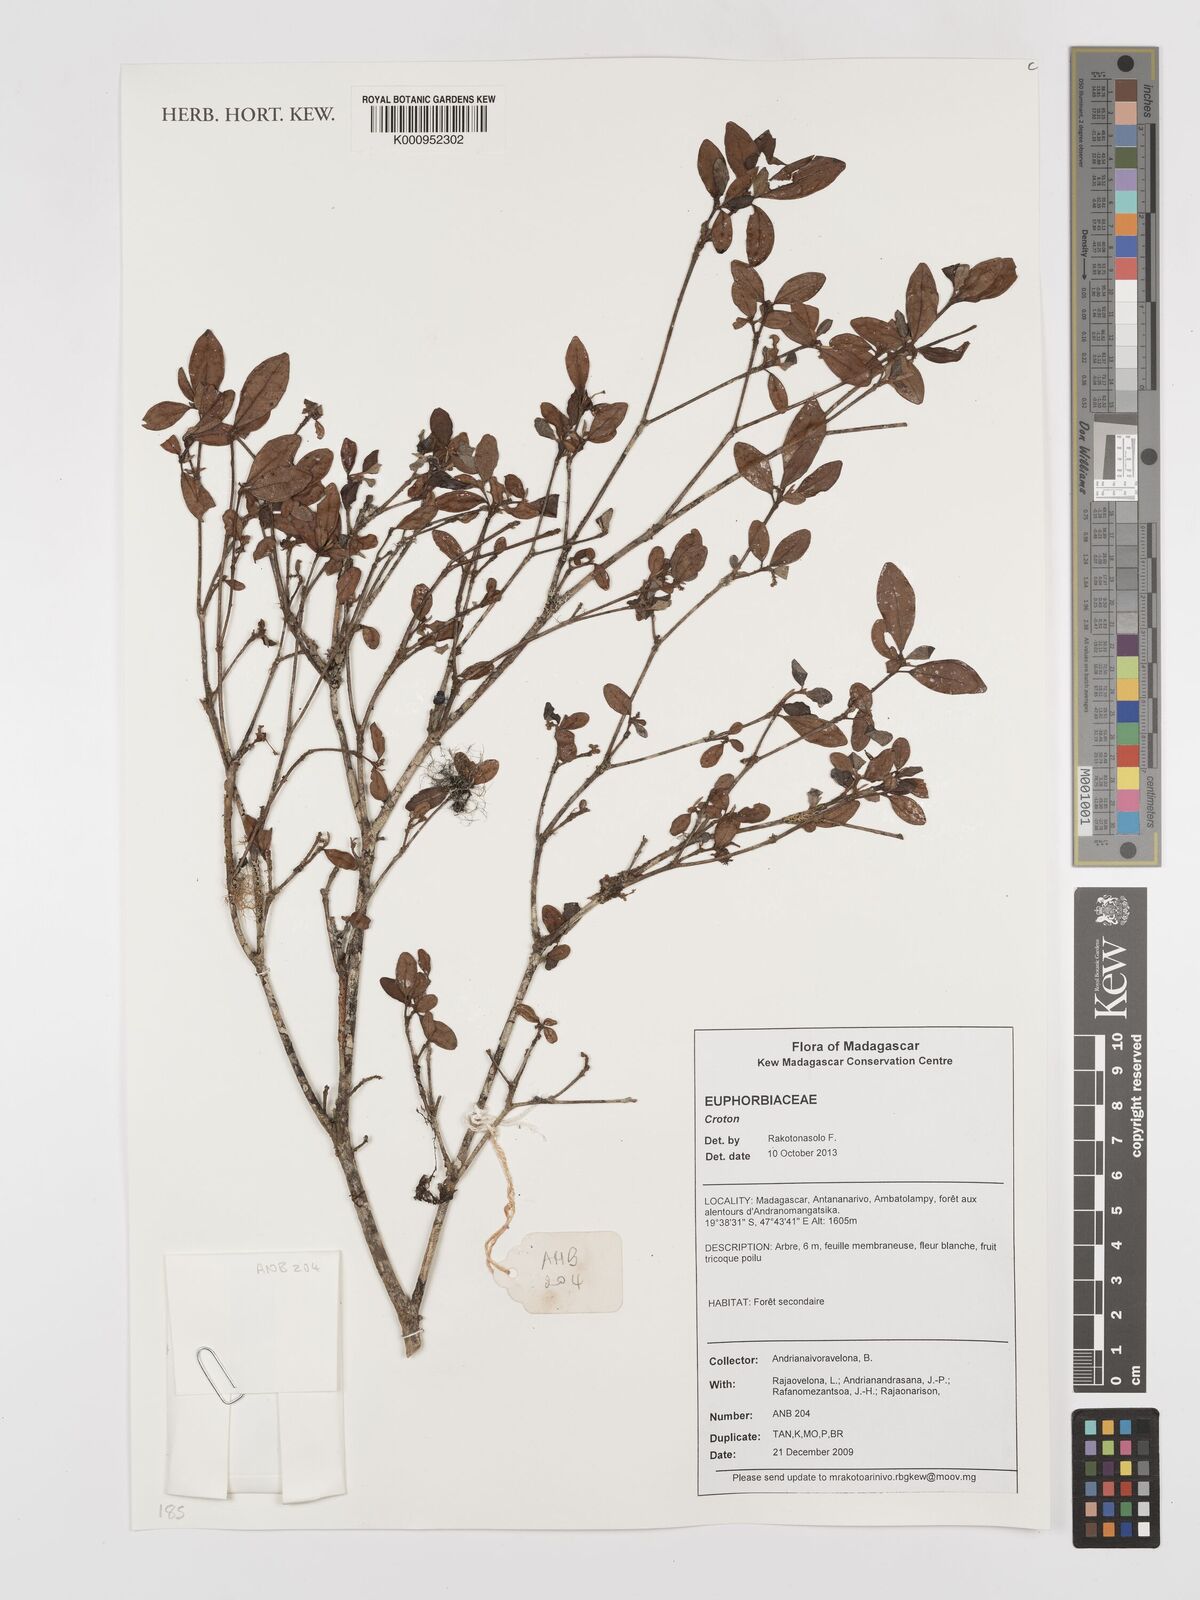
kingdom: Plantae
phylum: Tracheophyta
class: Magnoliopsida
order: Malpighiales
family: Euphorbiaceae
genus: Croton
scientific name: Croton
